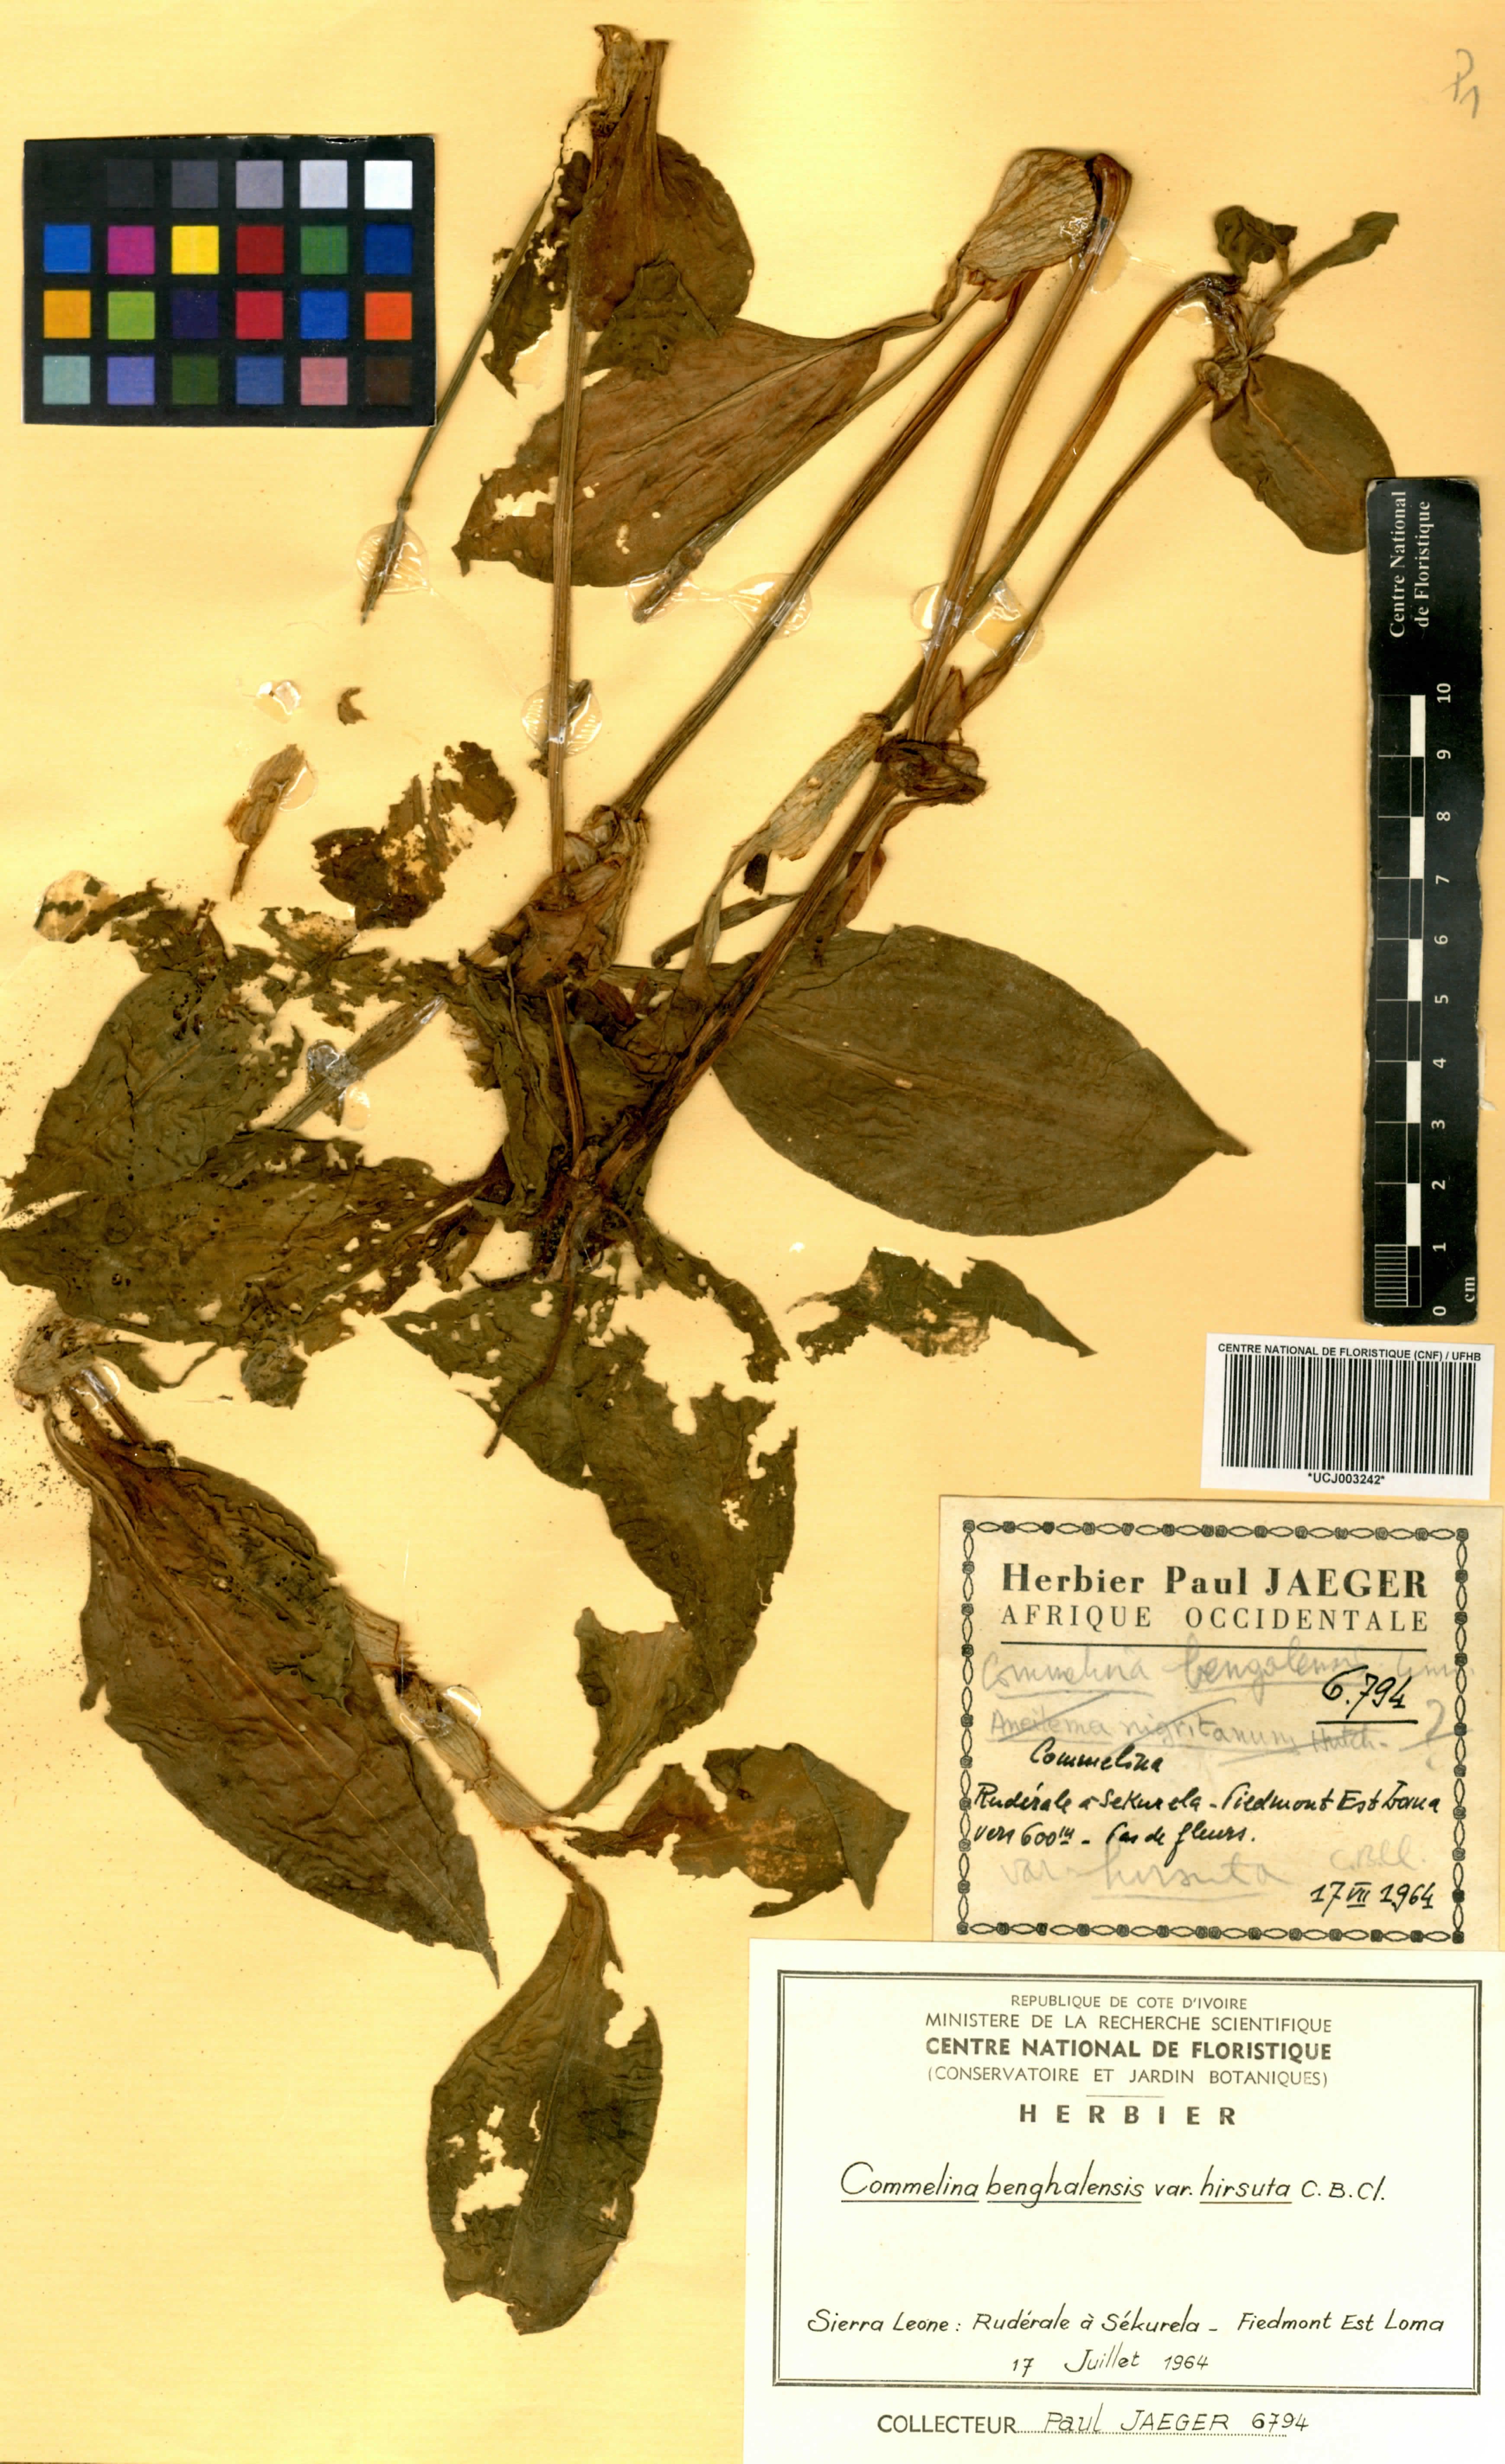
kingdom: Plantae
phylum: Tracheophyta
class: Liliopsida
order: Commelinales
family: Commelinaceae
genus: Commelina
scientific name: Commelina benghalensis
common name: Jio
